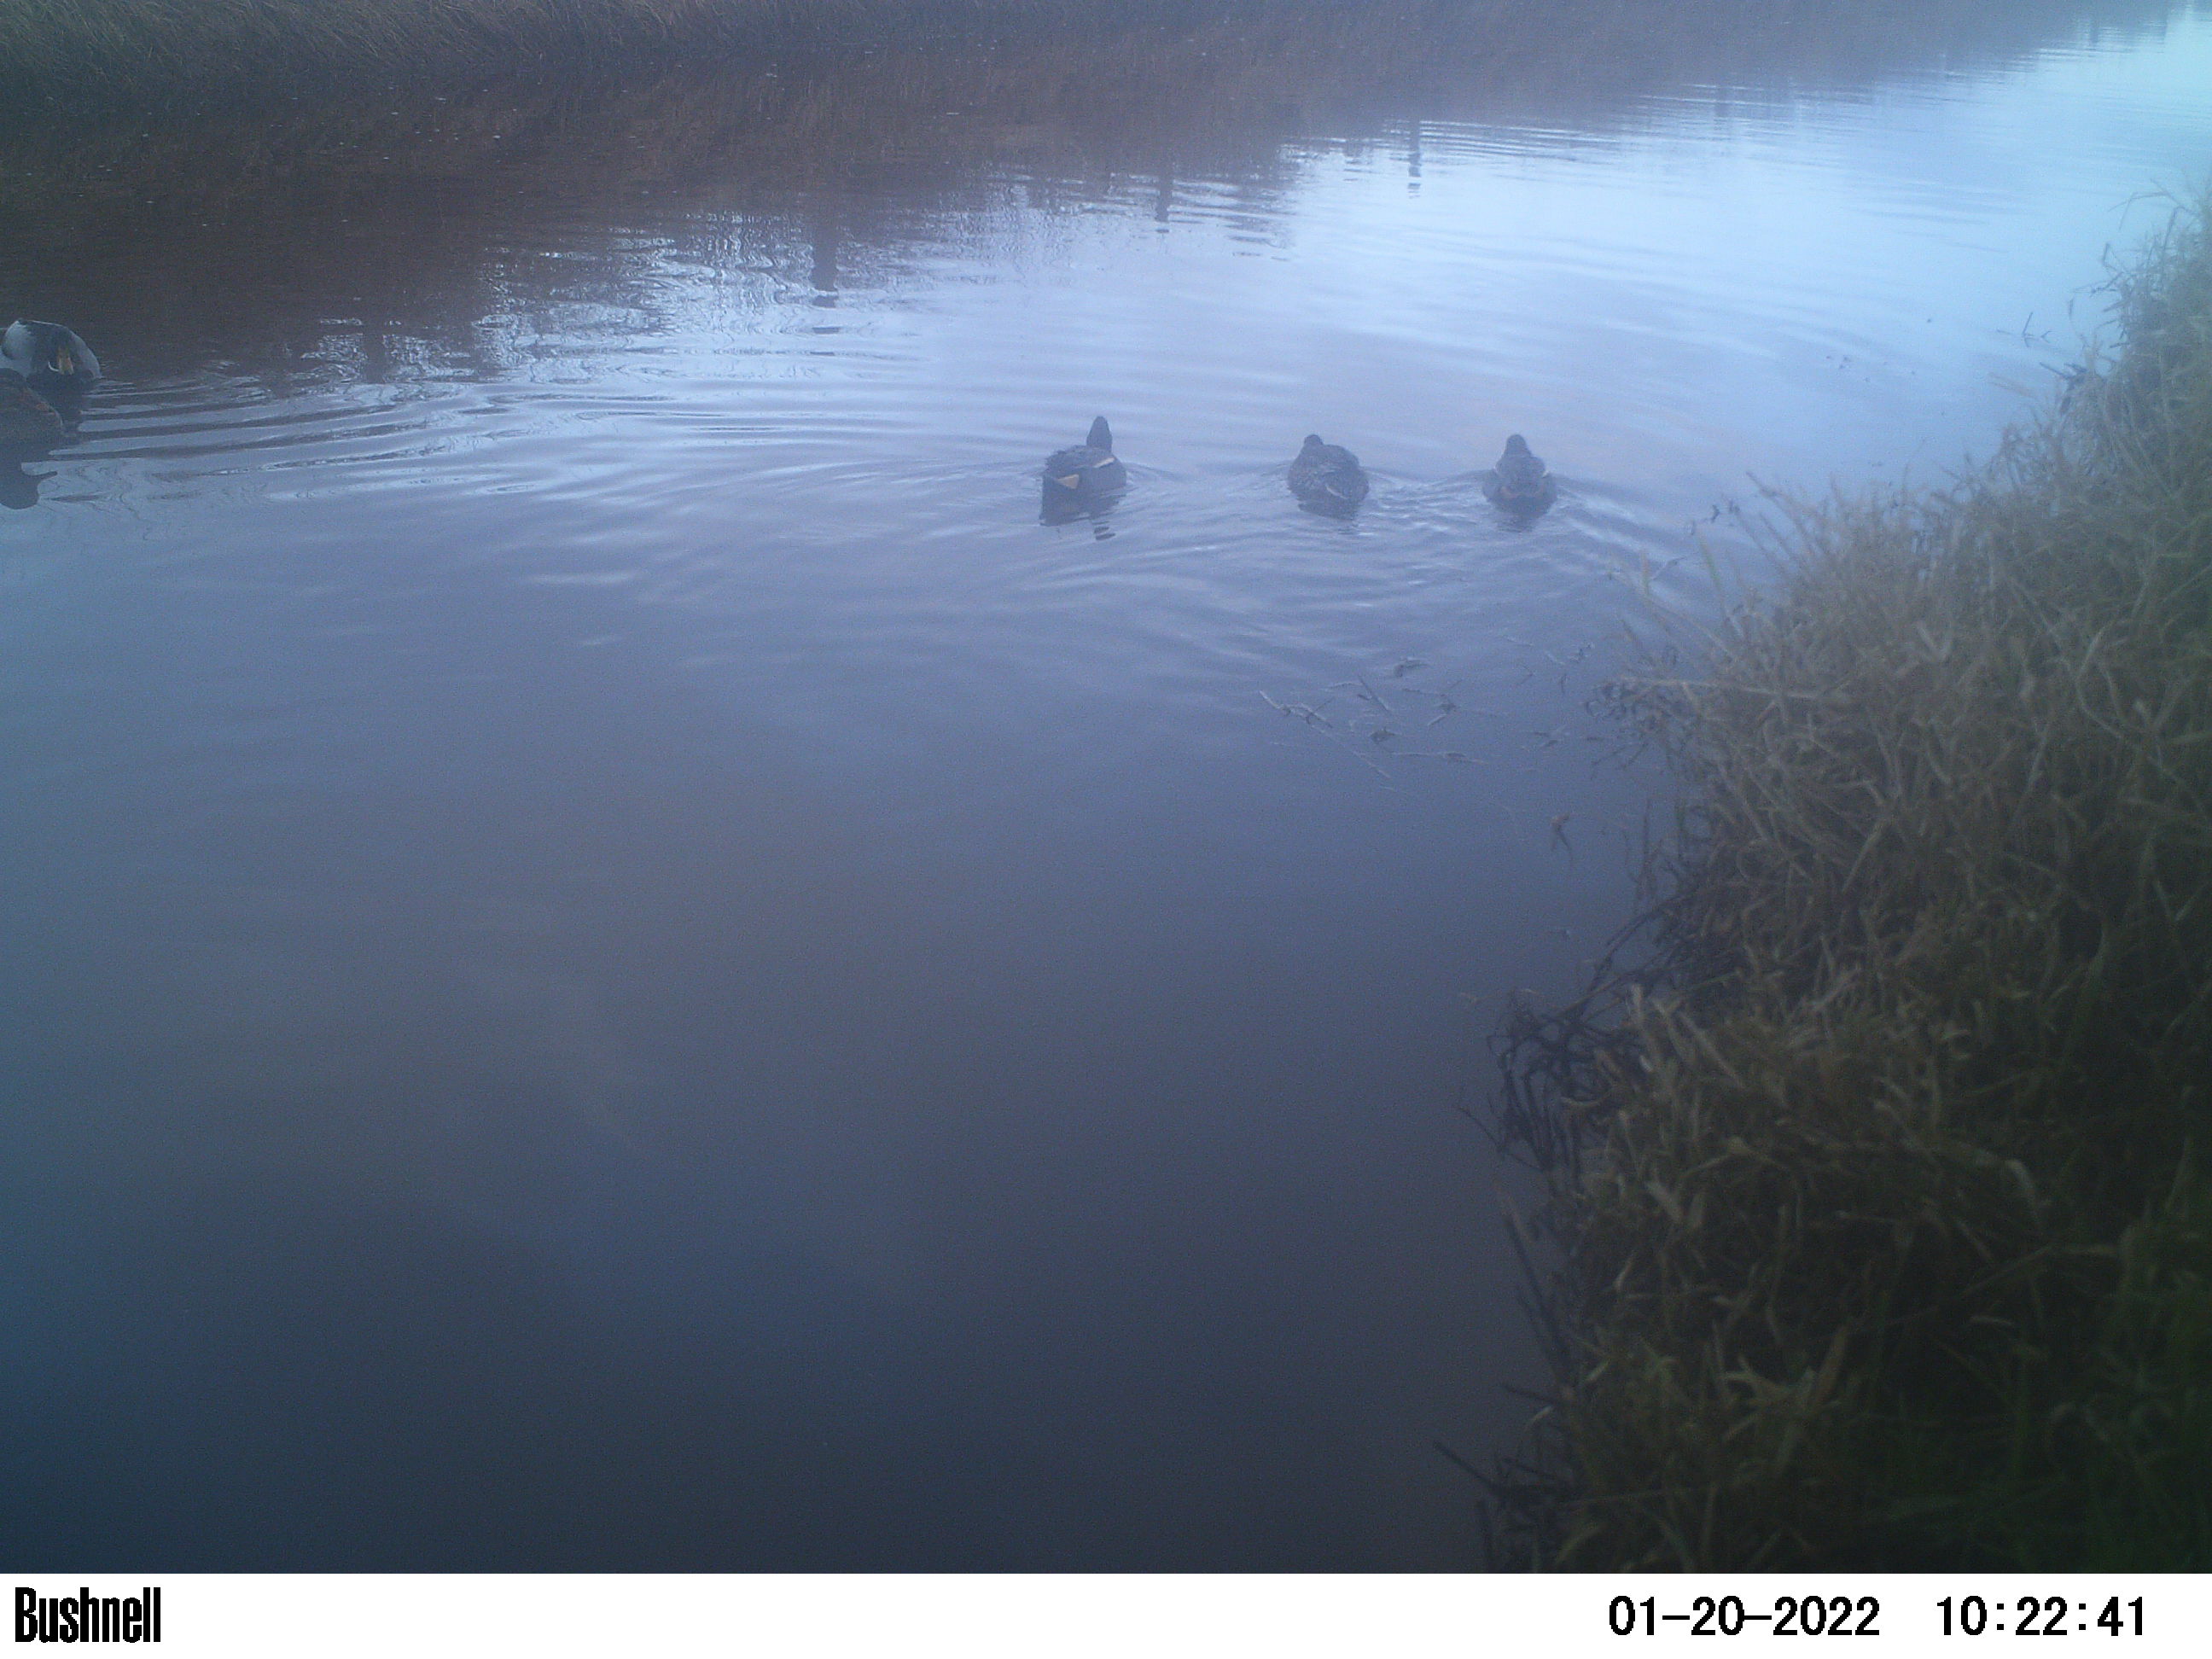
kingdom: Animalia
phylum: Chordata
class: Aves
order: Anseriformes
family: Anatidae
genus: Anas
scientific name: Anas
